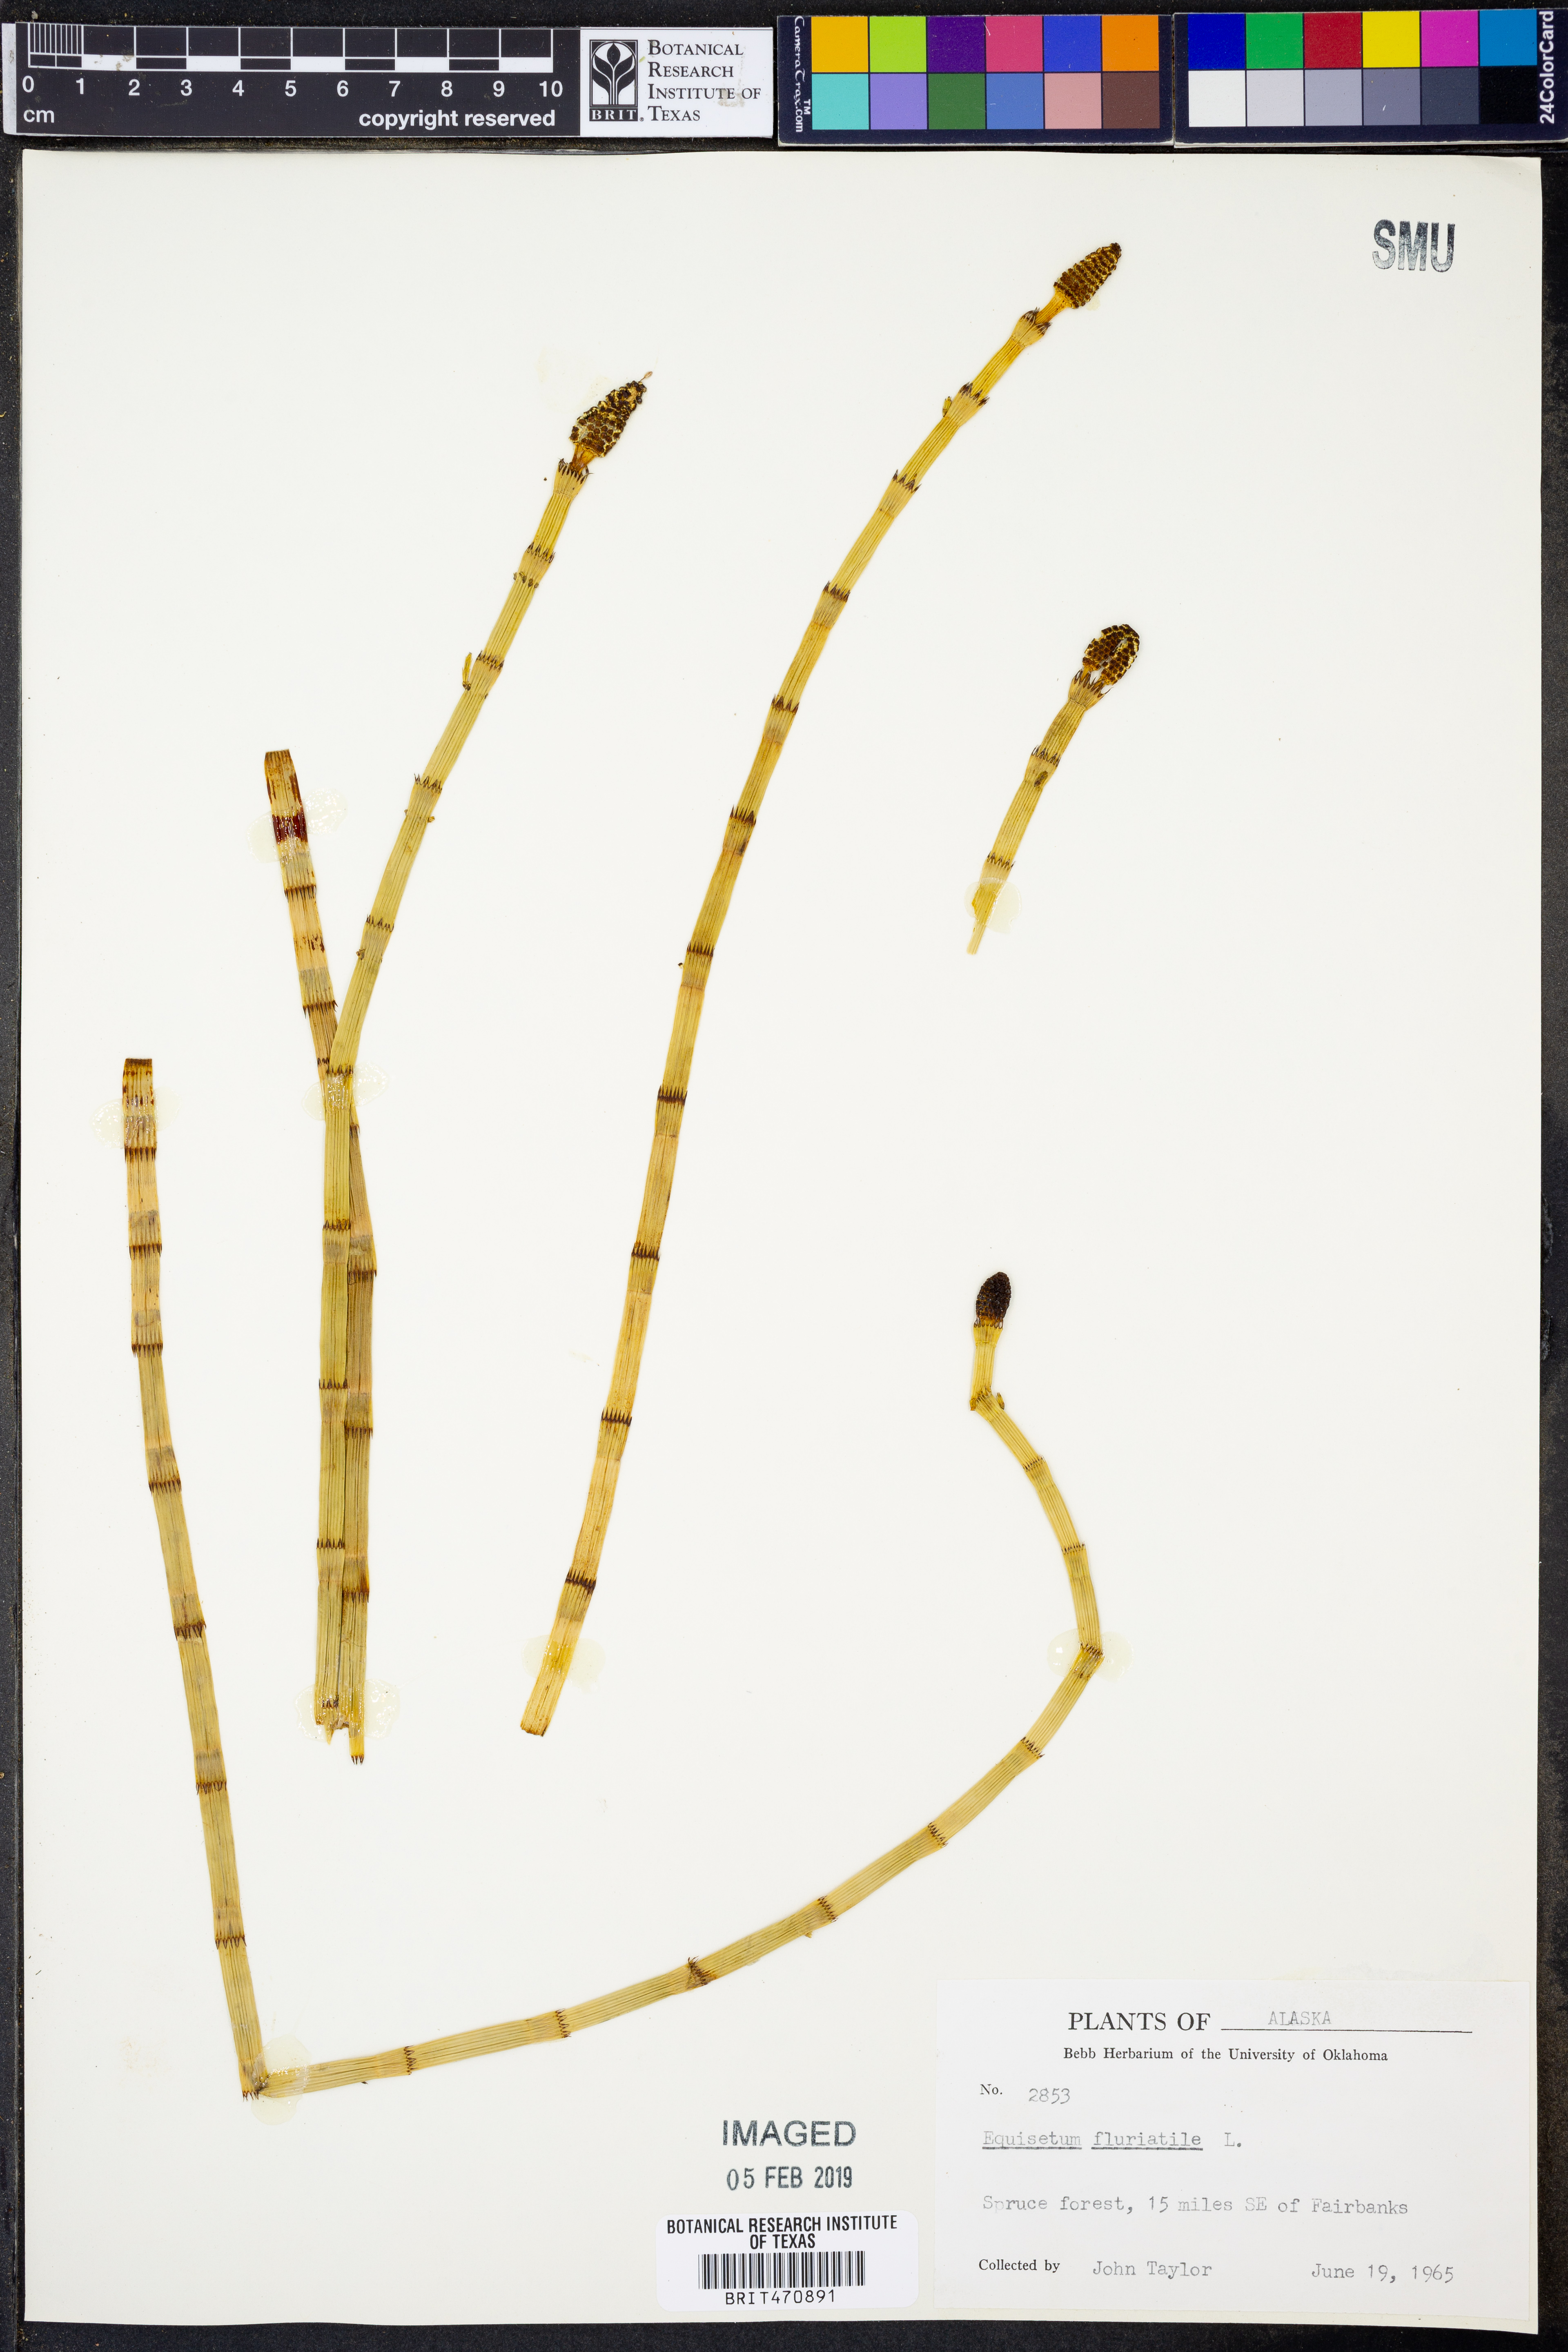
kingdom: Plantae
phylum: Tracheophyta
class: Polypodiopsida
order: Equisetales
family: Equisetaceae
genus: Equisetum
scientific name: Equisetum fluviatile
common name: Water horsetail
